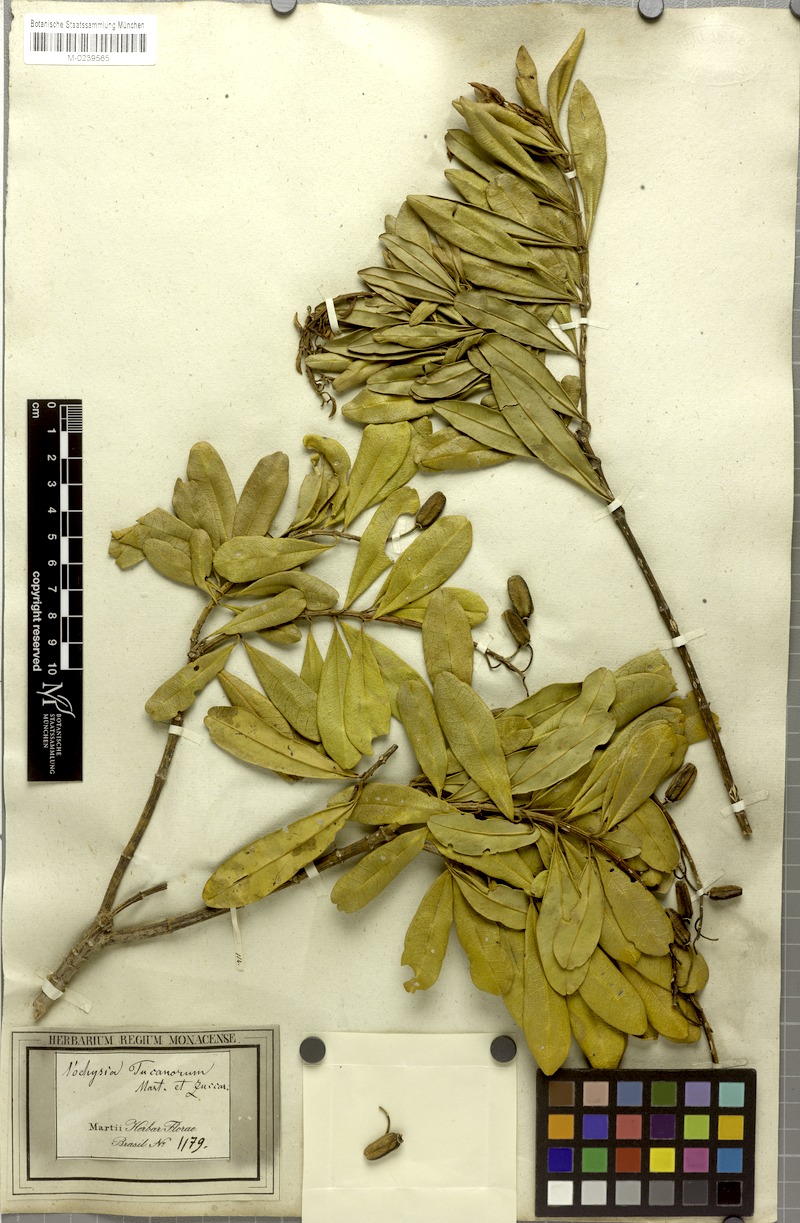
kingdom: Plantae
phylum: Tracheophyta
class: Magnoliopsida
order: Myrtales
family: Vochysiaceae
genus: Vochysia
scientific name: Vochysia tucanorum
